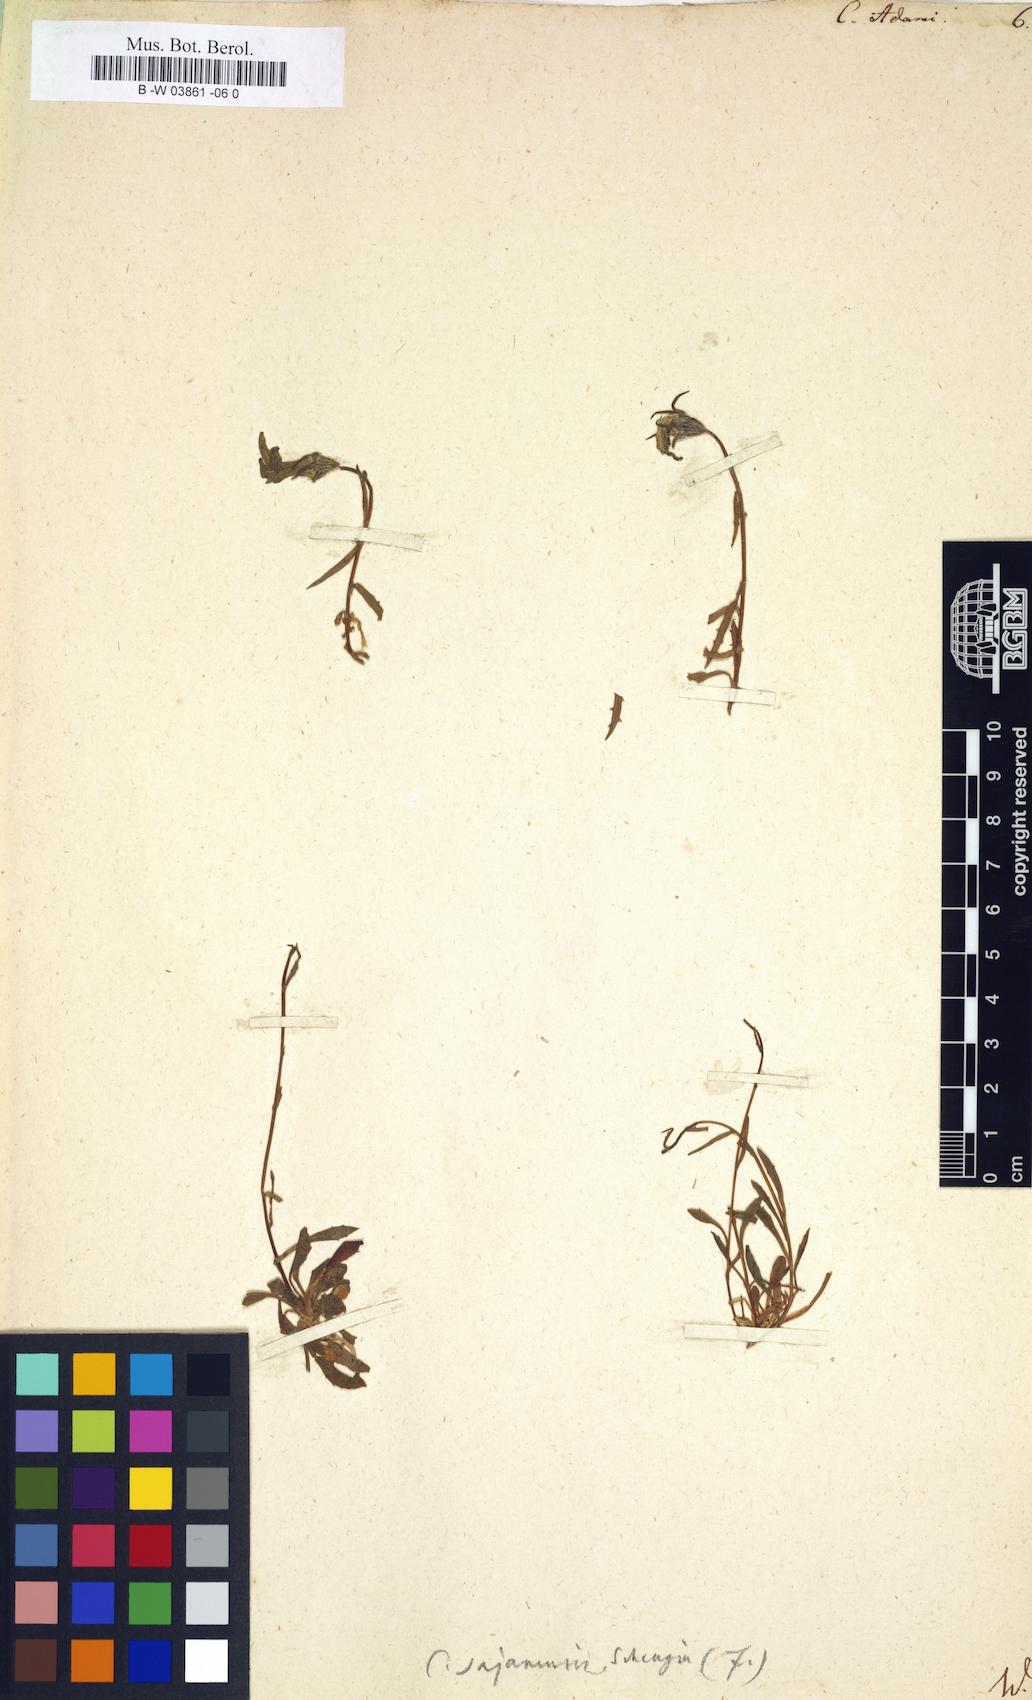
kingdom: Plantae
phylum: Tracheophyta
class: Magnoliopsida
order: Asterales
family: Campanulaceae
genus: Campanula
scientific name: Campanula bellidifolia
